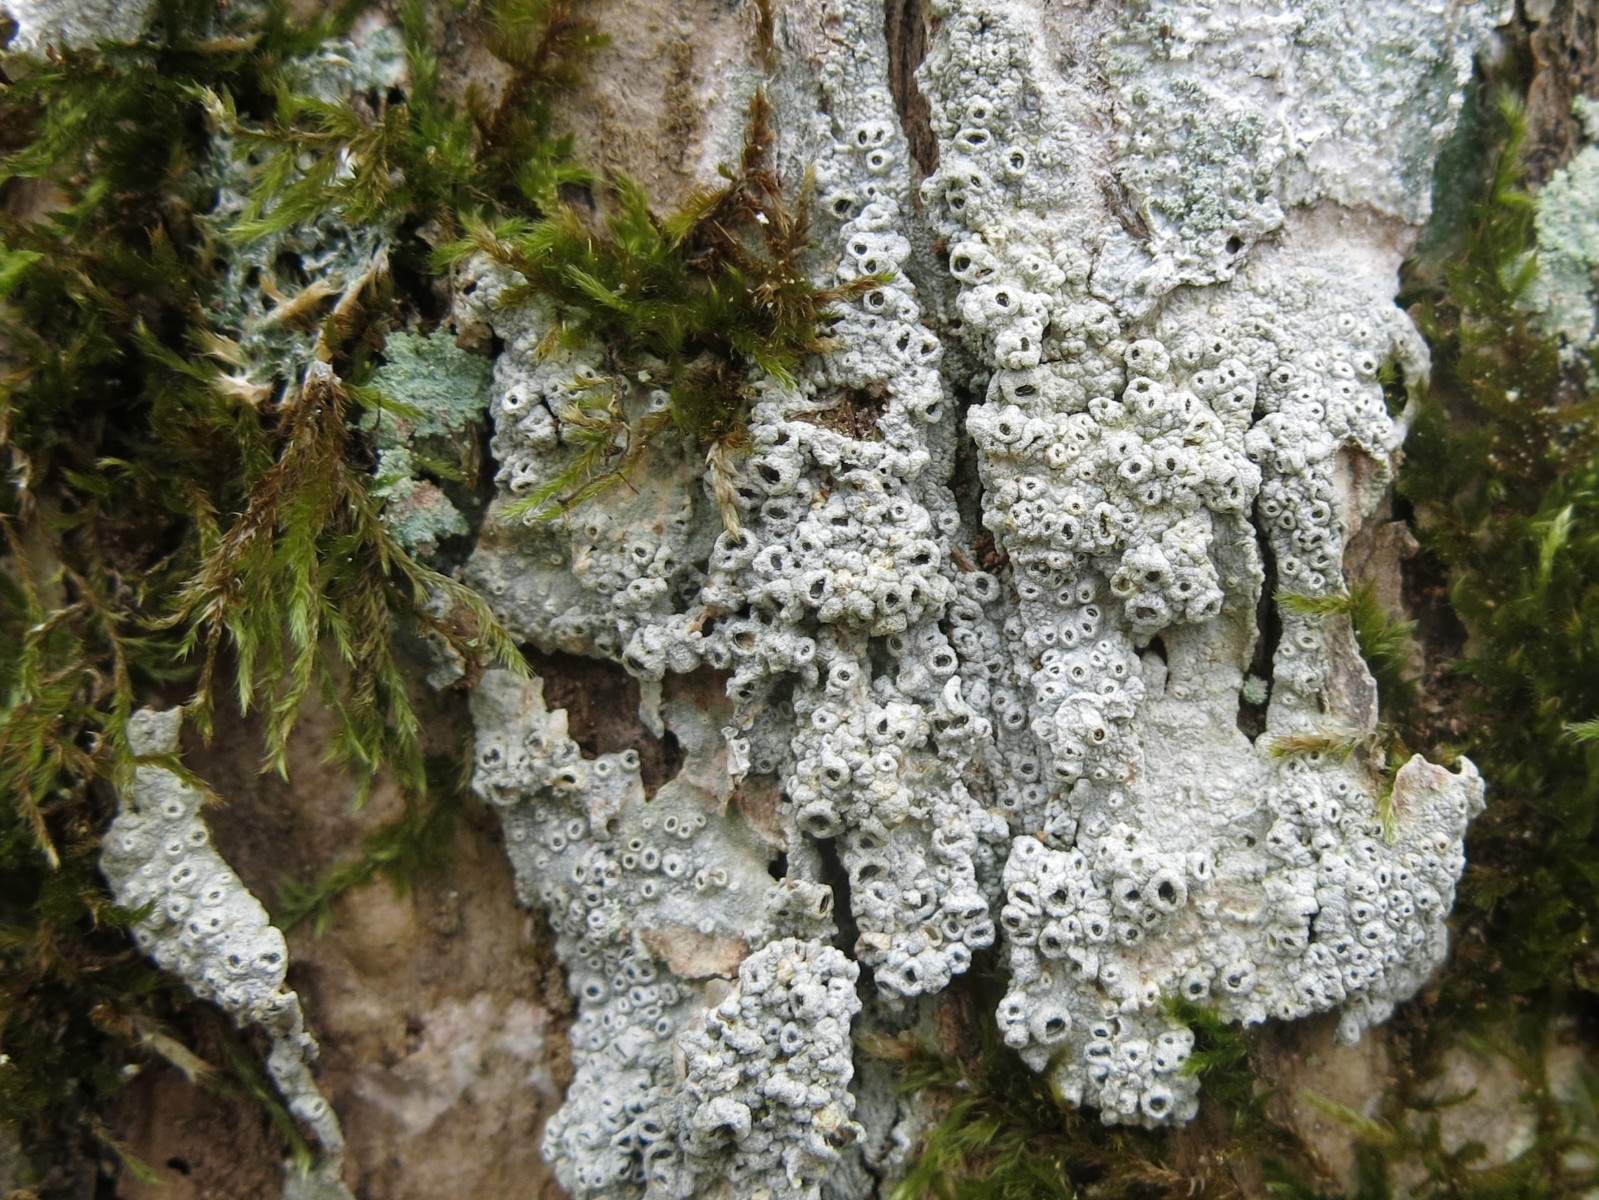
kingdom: Fungi
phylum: Ascomycota
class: Lecanoromycetes
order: Ostropales
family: Graphidaceae
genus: Thelotrema
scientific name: Thelotrema lepadinum
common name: almindelig slørkantlav
